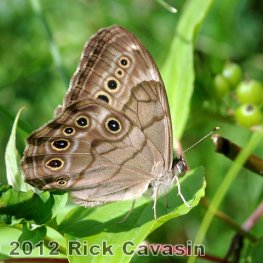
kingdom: Animalia
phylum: Arthropoda
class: Insecta
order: Lepidoptera
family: Nymphalidae
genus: Lethe
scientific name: Lethe anthedon
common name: Northern Pearly-Eye
